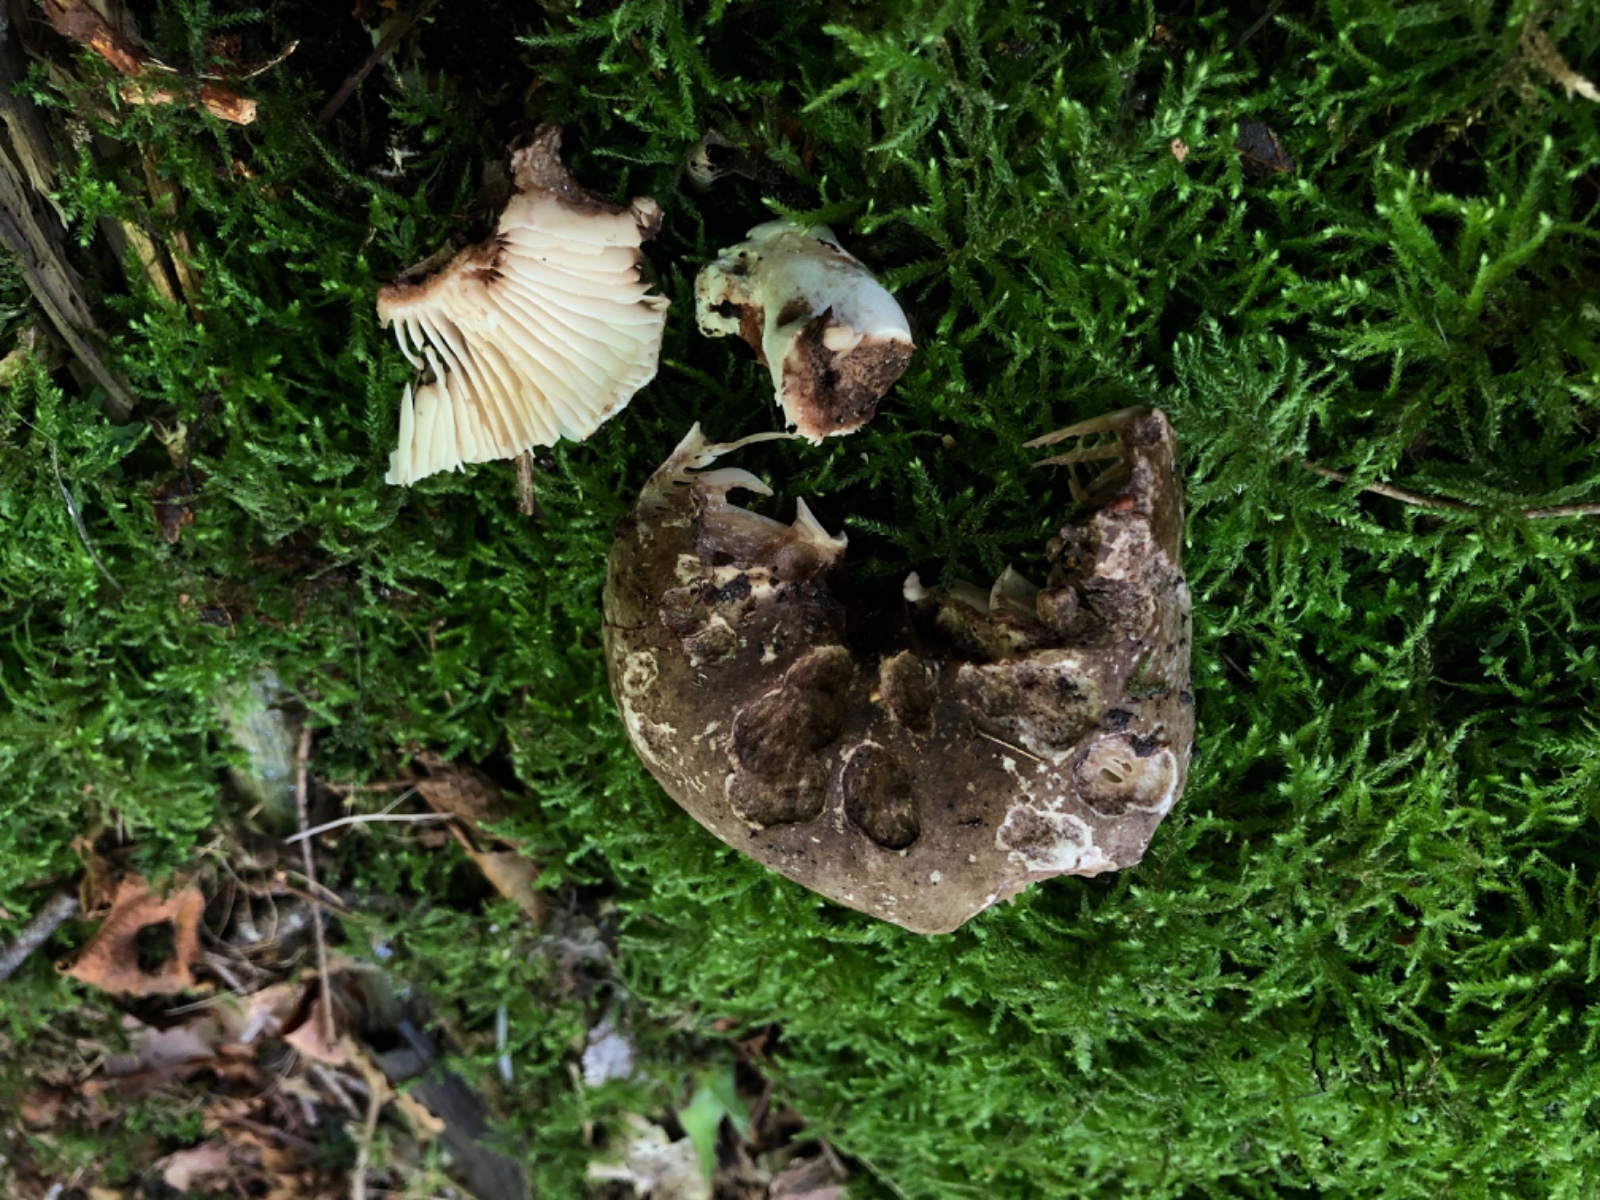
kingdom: Fungi
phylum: Basidiomycota
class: Agaricomycetes
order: Russulales
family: Russulaceae
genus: Russula
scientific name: Russula adusta
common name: sværtende skørhat
